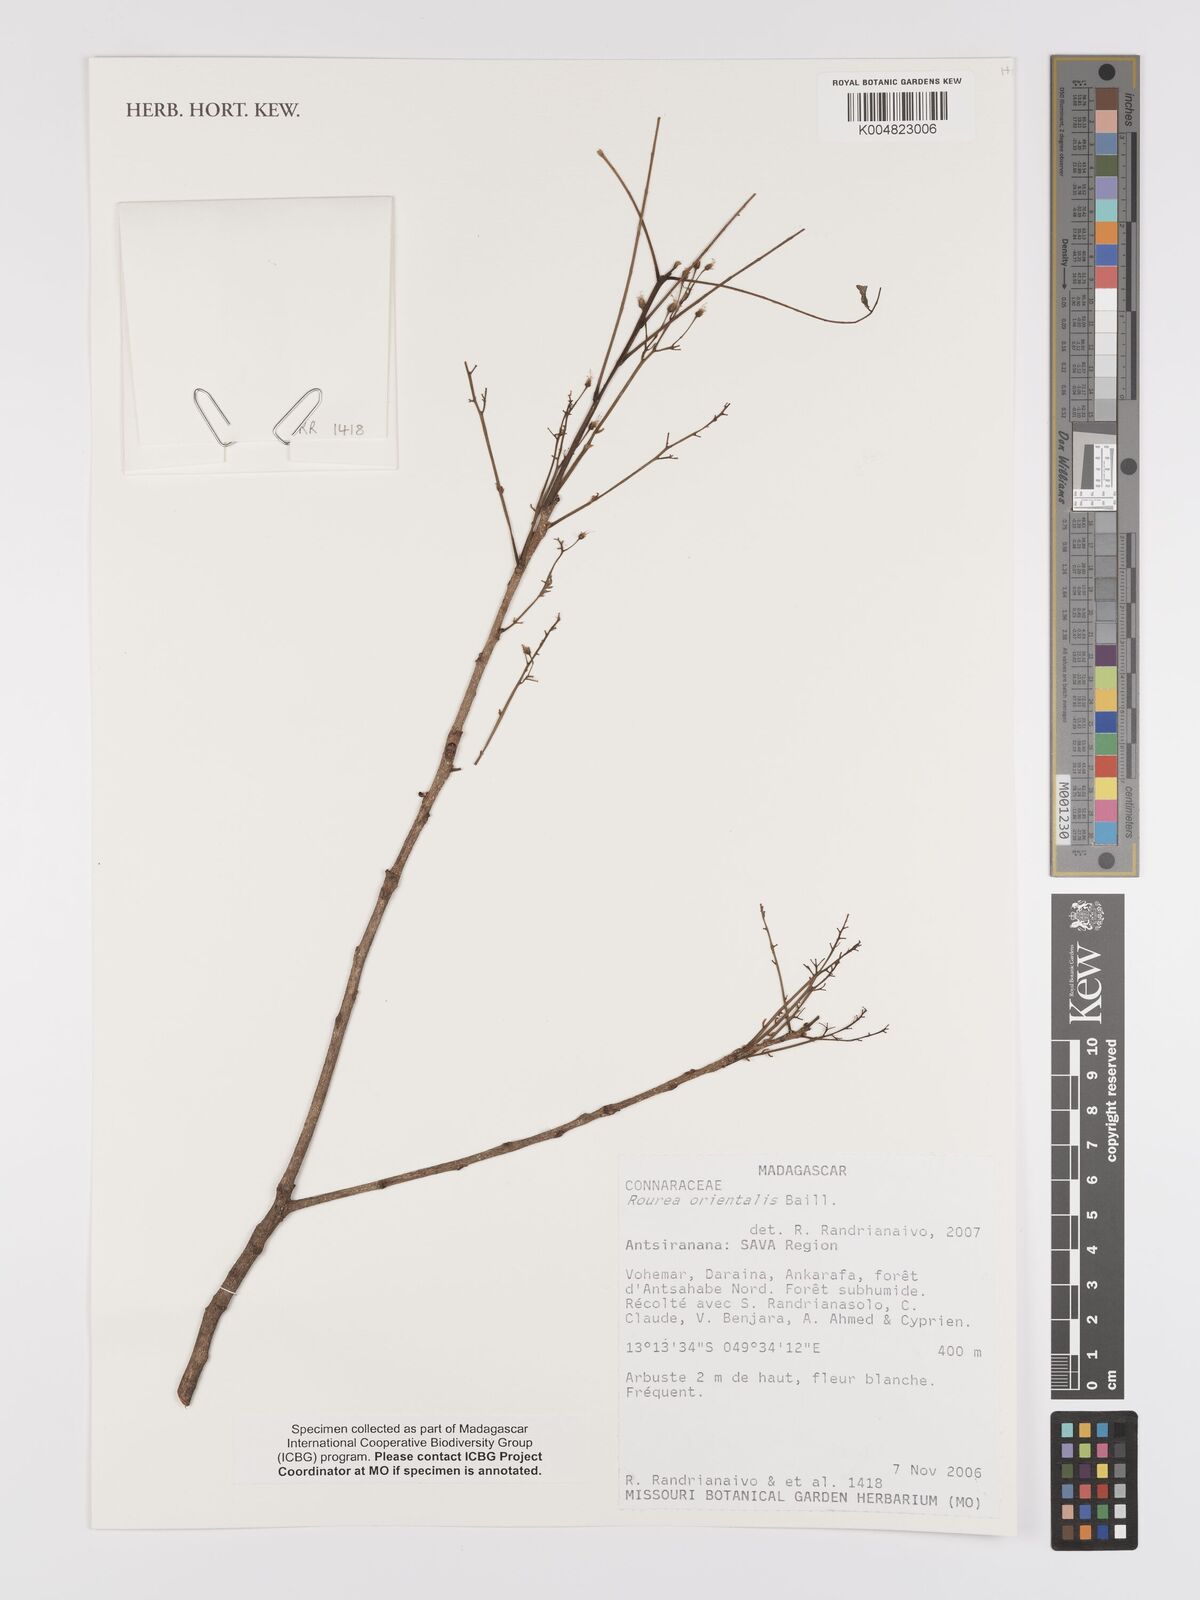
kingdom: Plantae
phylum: Tracheophyta
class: Magnoliopsida
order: Oxalidales
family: Connaraceae
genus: Rourea
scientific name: Rourea orientalis
